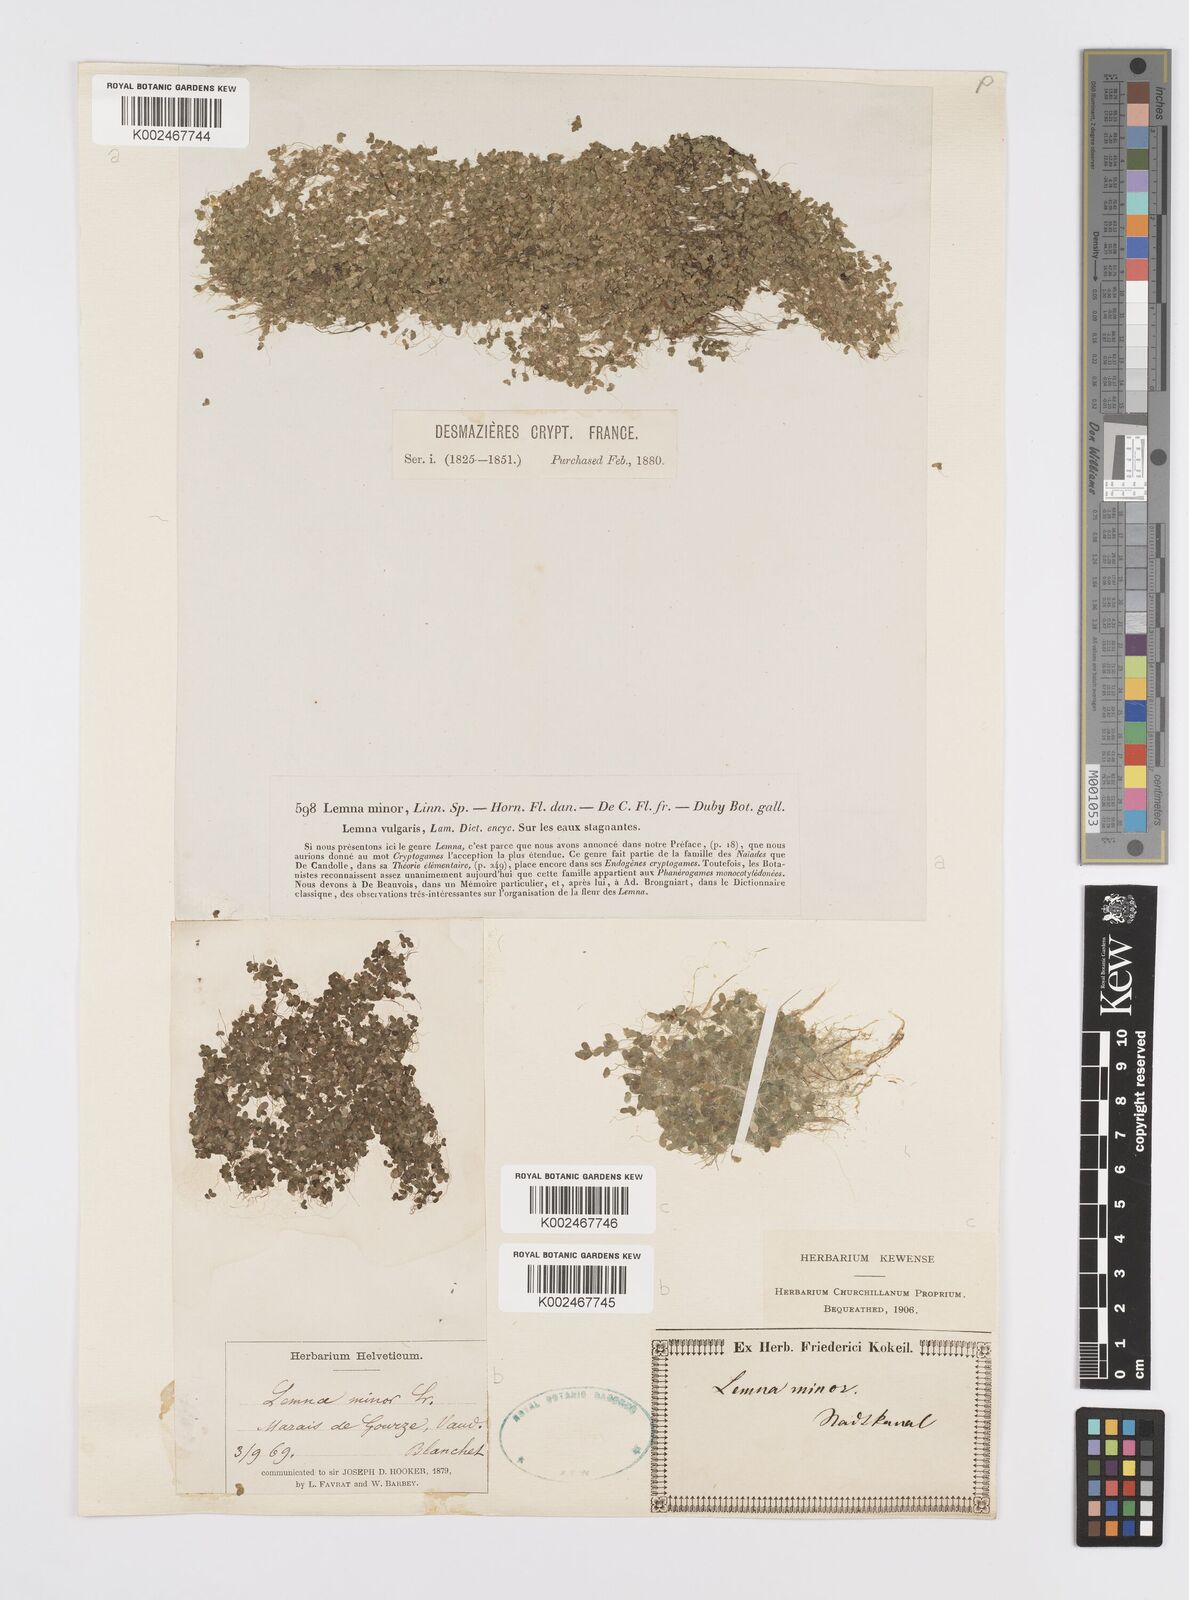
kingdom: Plantae
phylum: Tracheophyta
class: Liliopsida
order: Alismatales
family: Araceae
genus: Lemna
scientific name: Lemna minor
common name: Common duckweed
